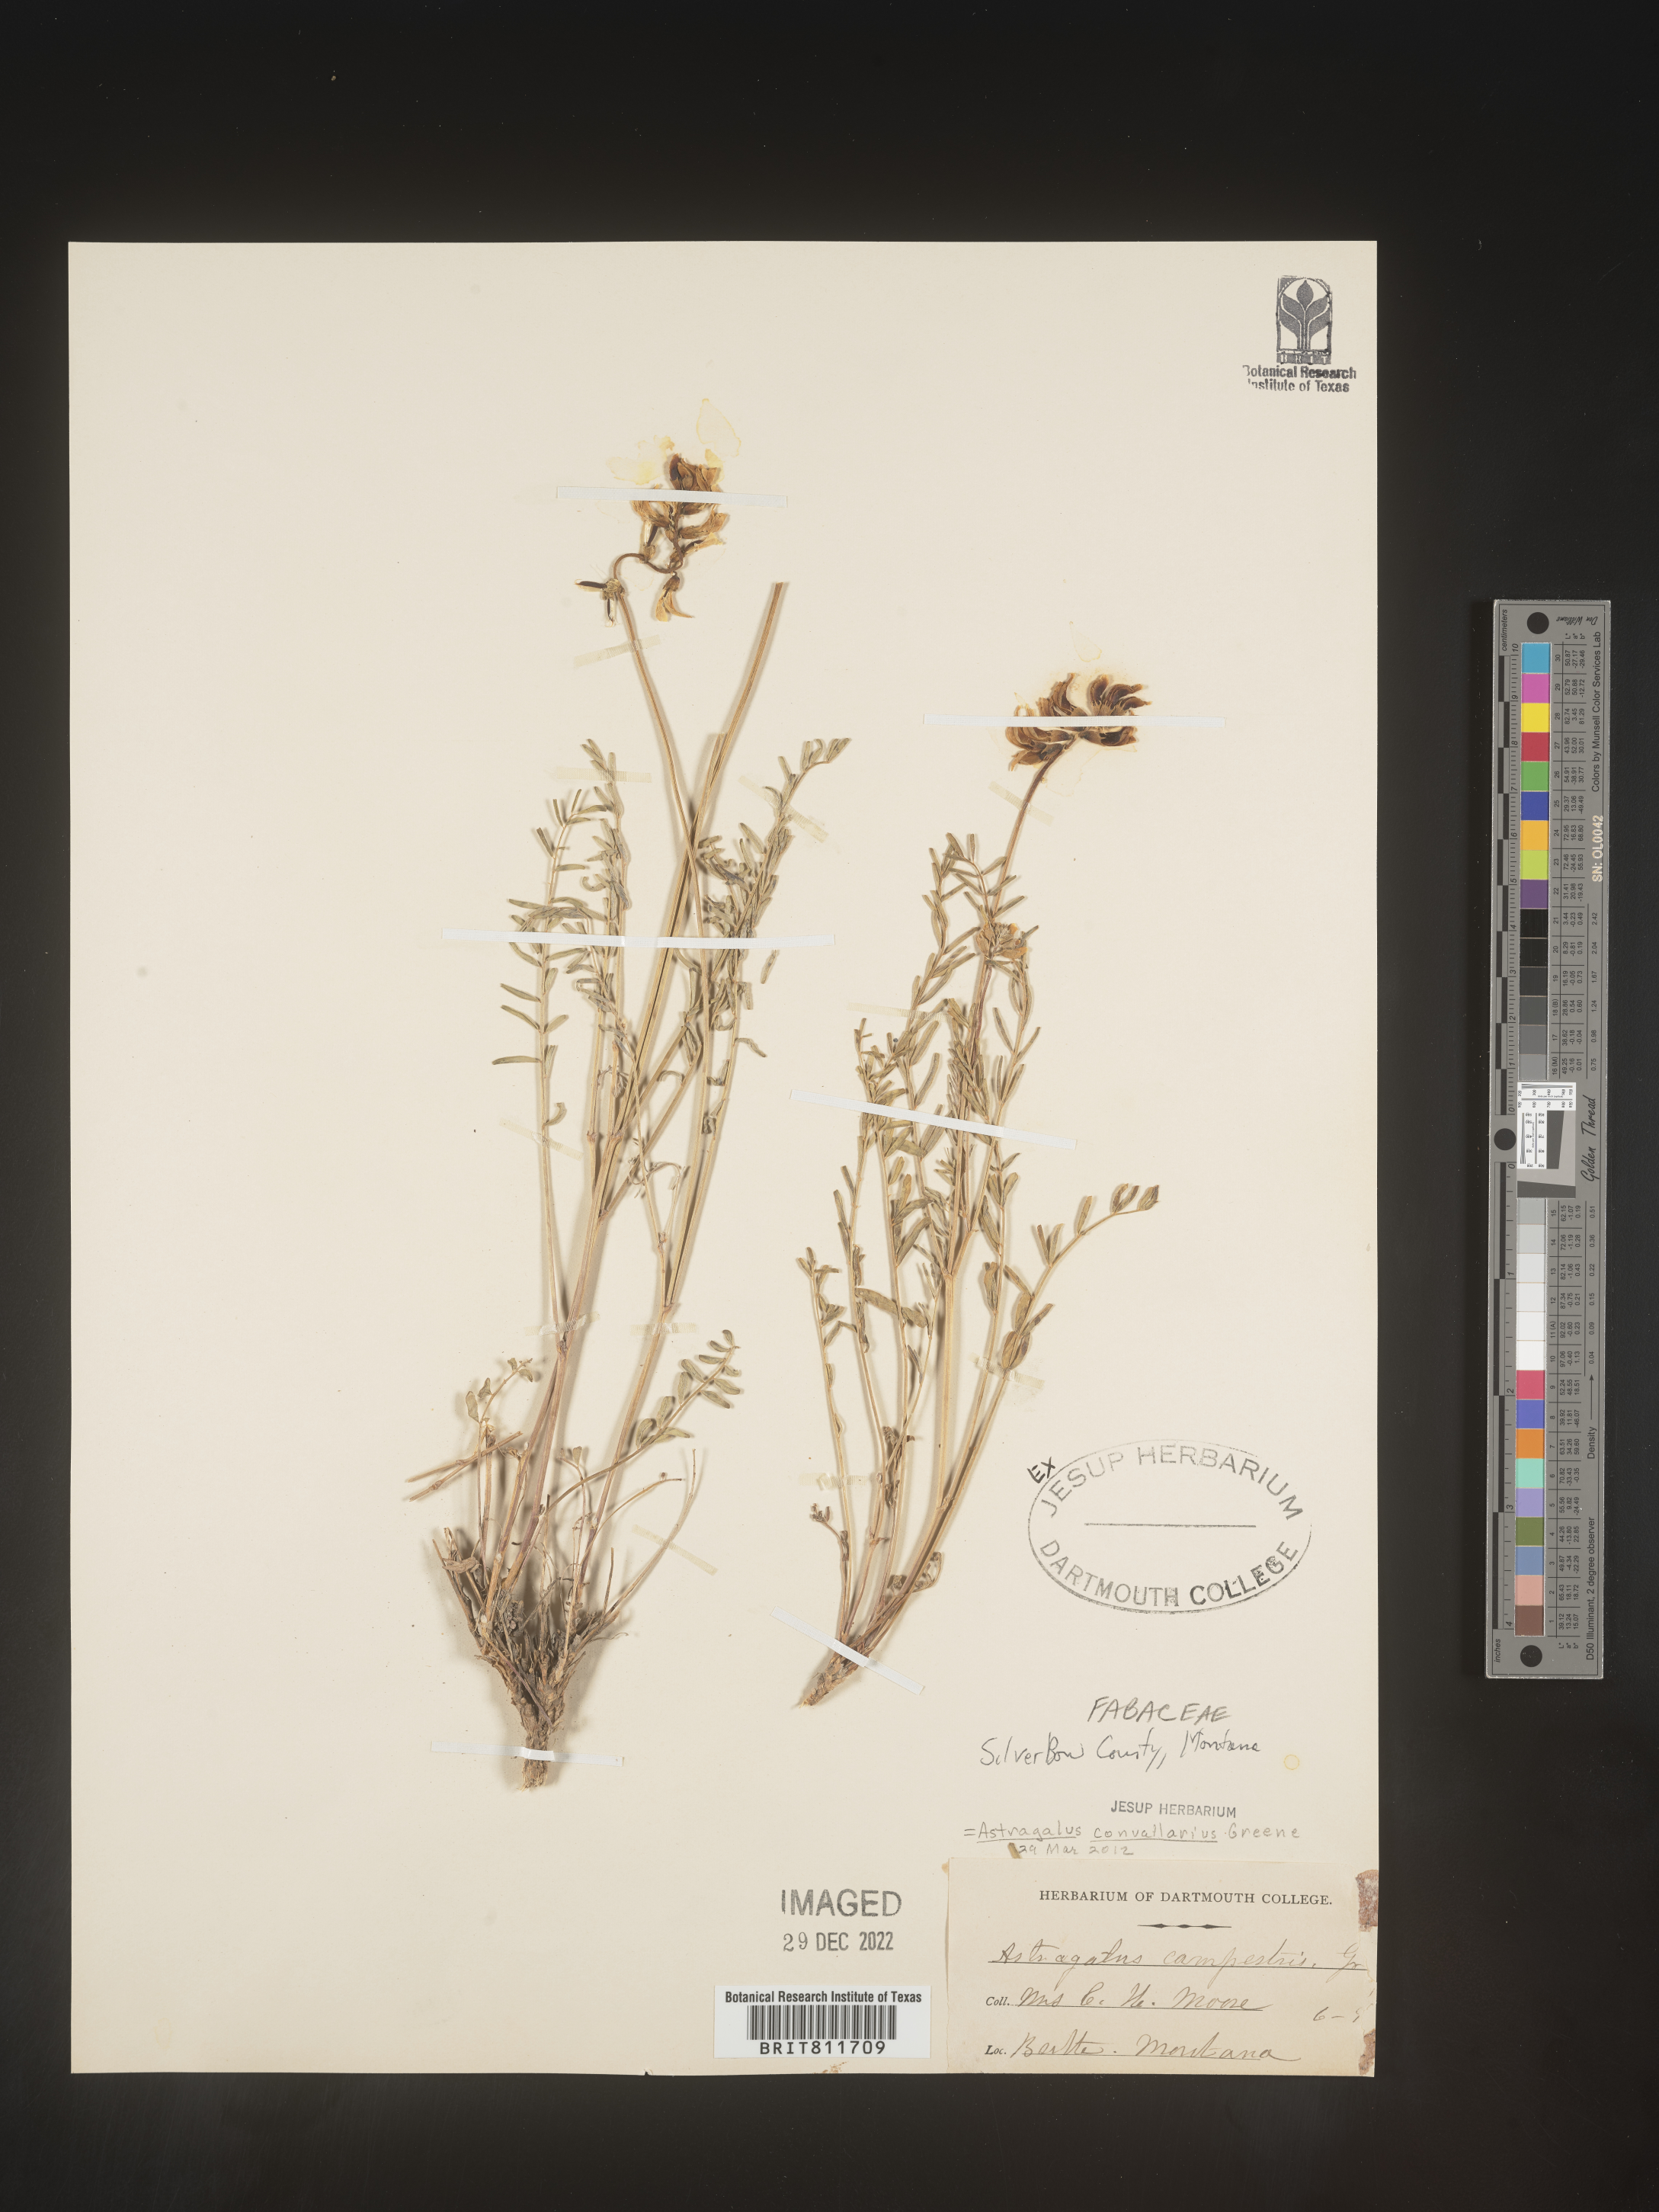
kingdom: Plantae
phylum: Tracheophyta
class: Magnoliopsida
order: Fabales
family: Fabaceae
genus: Astragalus
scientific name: Astragalus convallarius
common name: Lesser rushy milk-vetch
